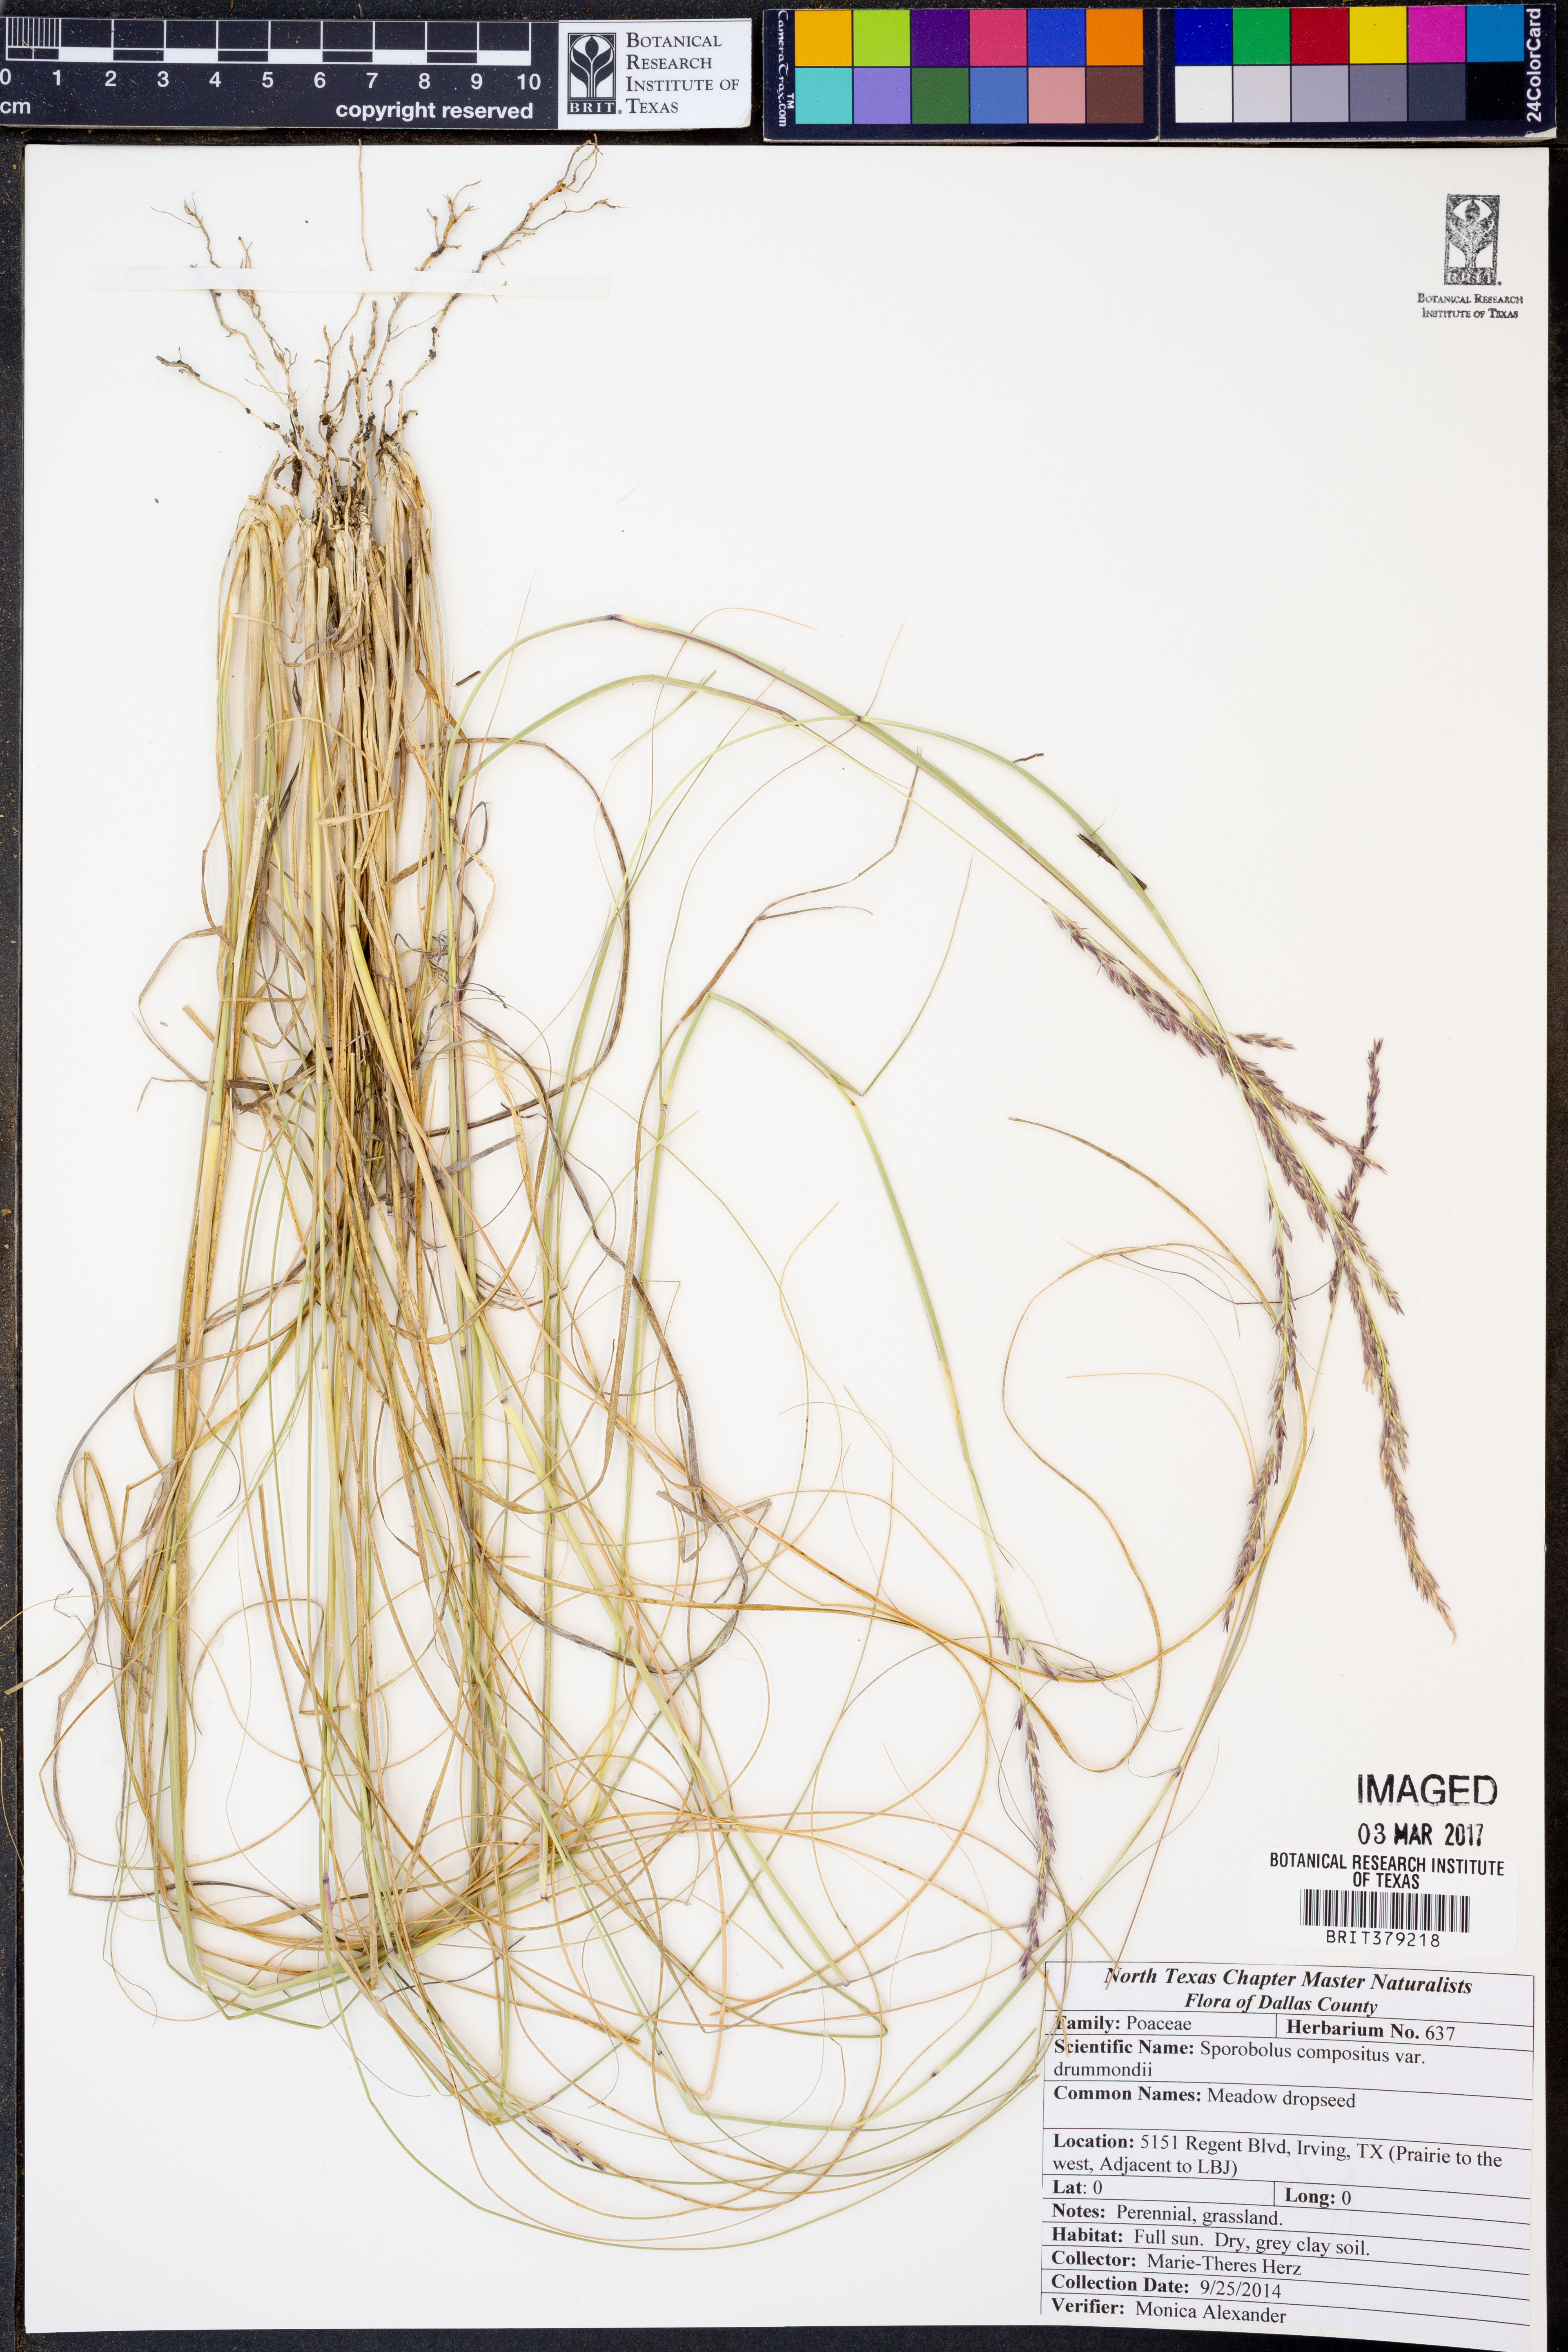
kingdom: Plantae
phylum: Tracheophyta
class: Liliopsida
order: Poales
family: Poaceae
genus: Sporobolus
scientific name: Sporobolus compositus
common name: Rough dropseed
